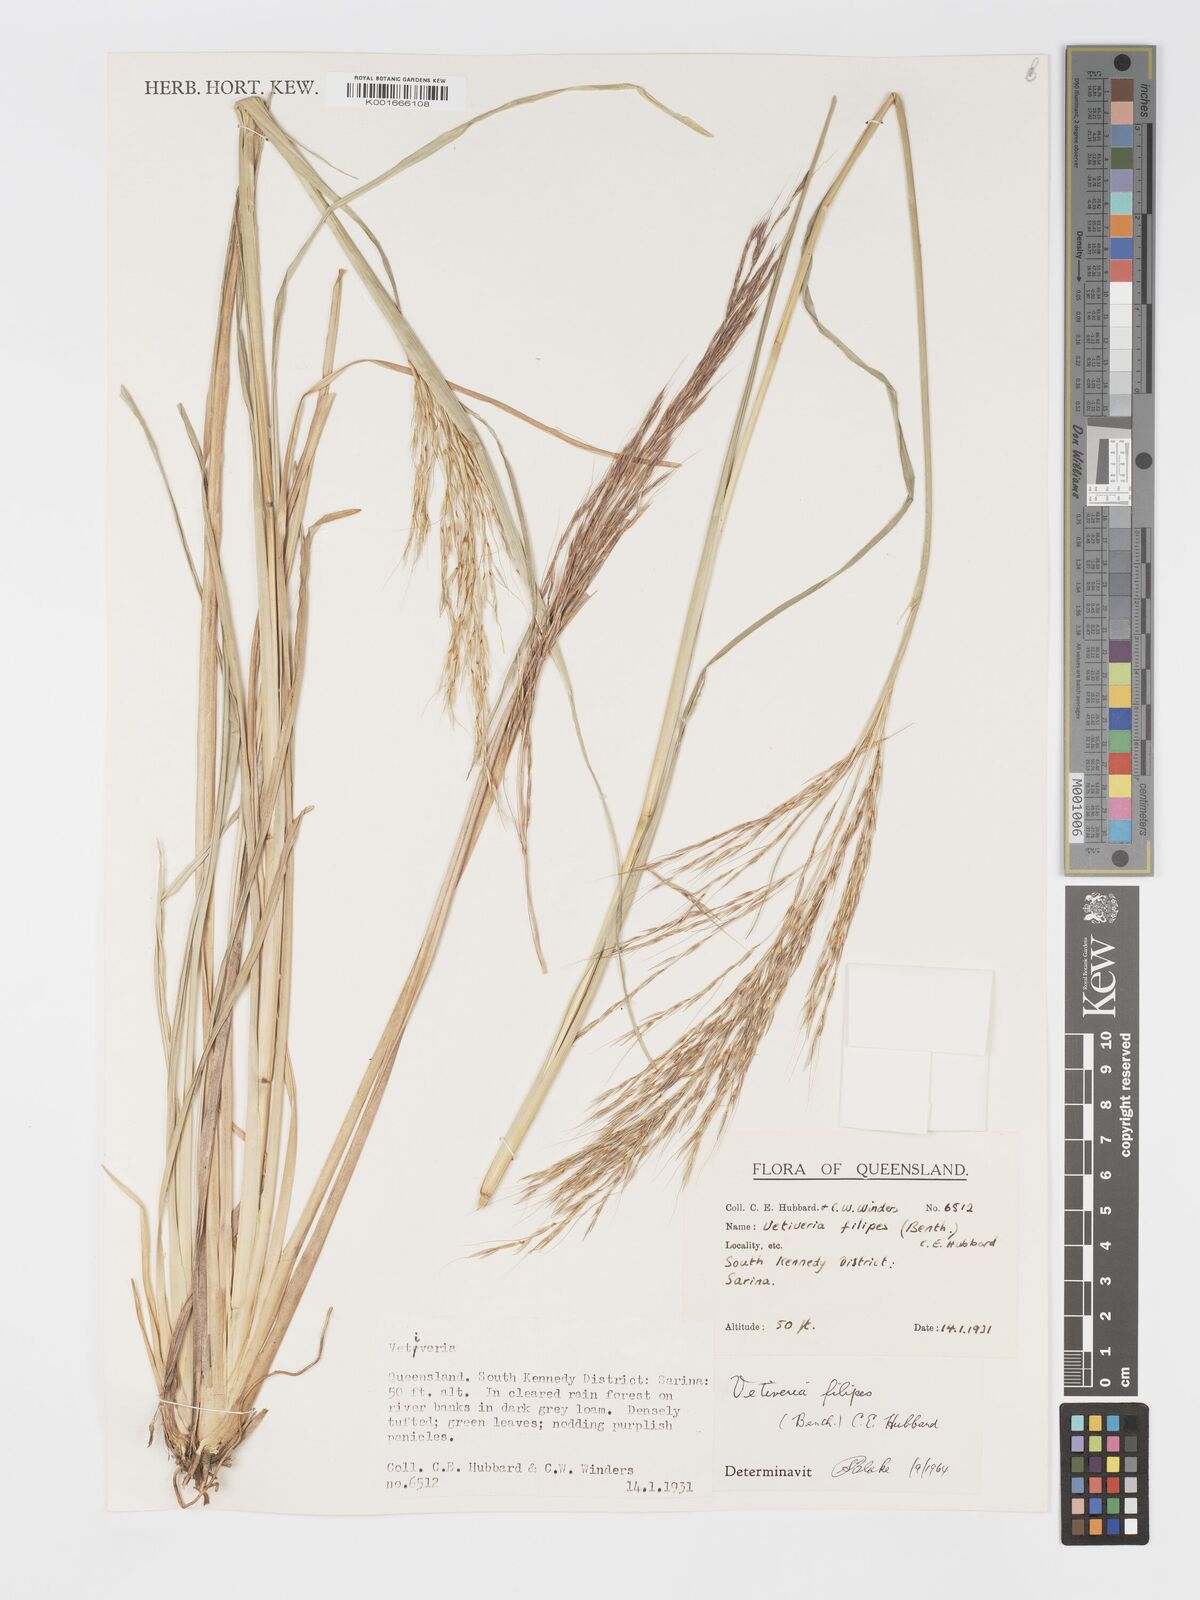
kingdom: Plantae
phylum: Tracheophyta
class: Liliopsida
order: Poales
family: Poaceae
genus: Chrysopogon
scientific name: Chrysopogon filipes
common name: Australian vetiver
